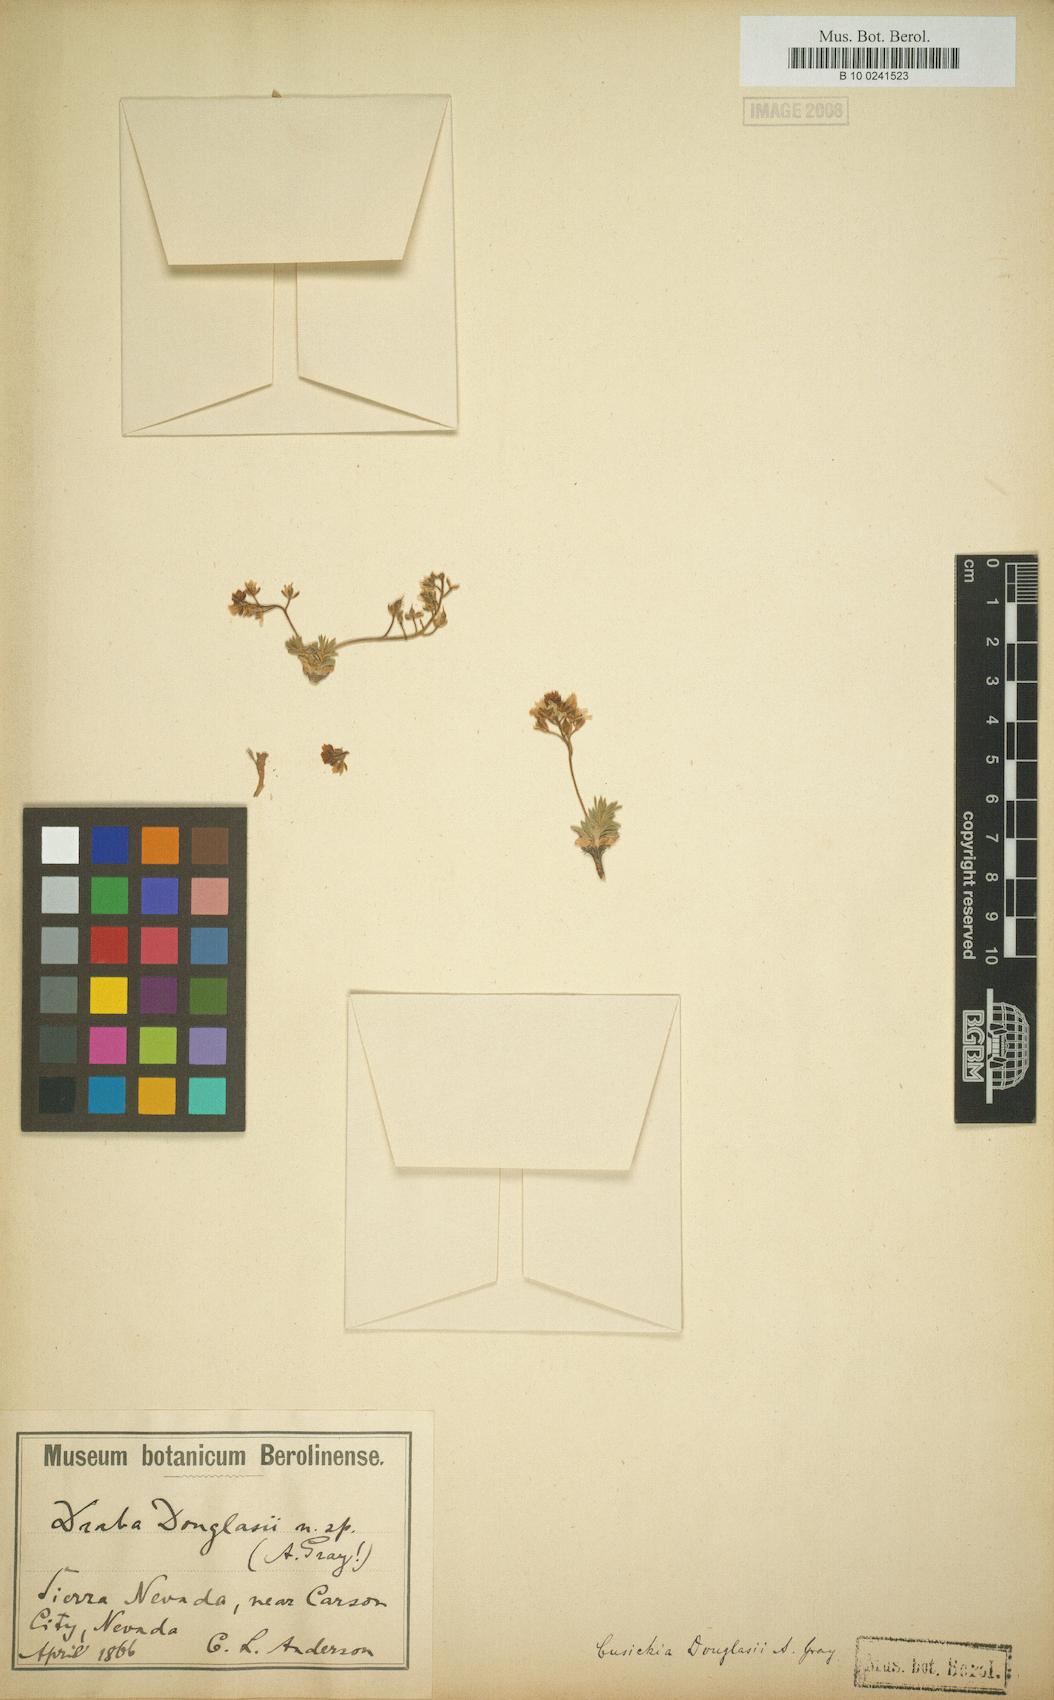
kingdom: Plantae
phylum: Tracheophyta
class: Magnoliopsida
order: Brassicales
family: Brassicaceae
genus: Cusickiella
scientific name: Cusickiella douglasii
